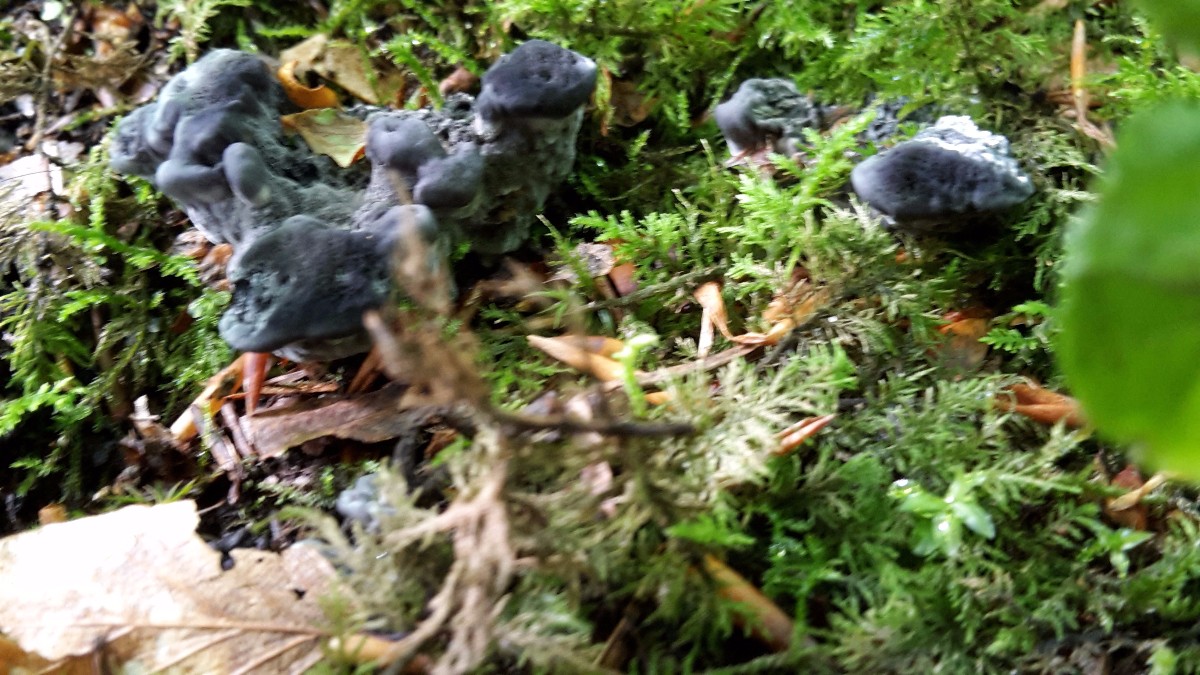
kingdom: Fungi
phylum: Basidiomycota
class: Agaricomycetes
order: Thelephorales
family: Thelephoraceae
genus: Phellodon
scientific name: Phellodon niger
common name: Black tooth
